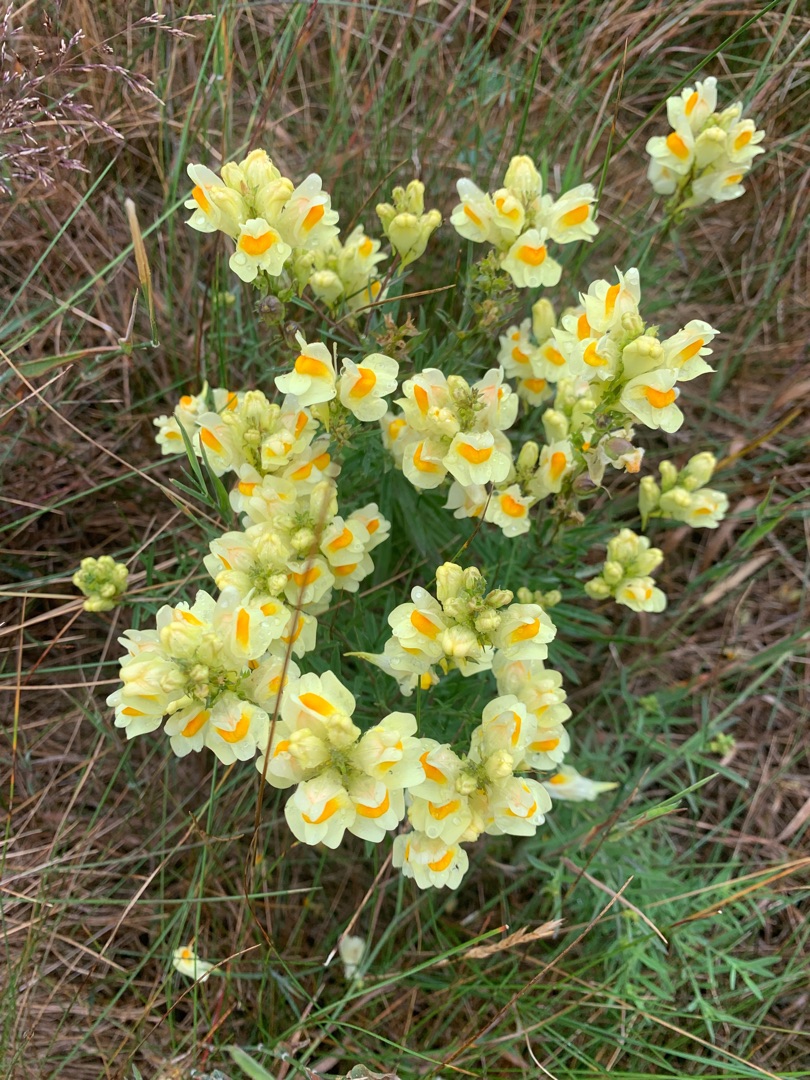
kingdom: Plantae
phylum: Tracheophyta
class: Magnoliopsida
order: Lamiales
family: Plantaginaceae
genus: Linaria
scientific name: Linaria vulgaris
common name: Almindelig torskemund
